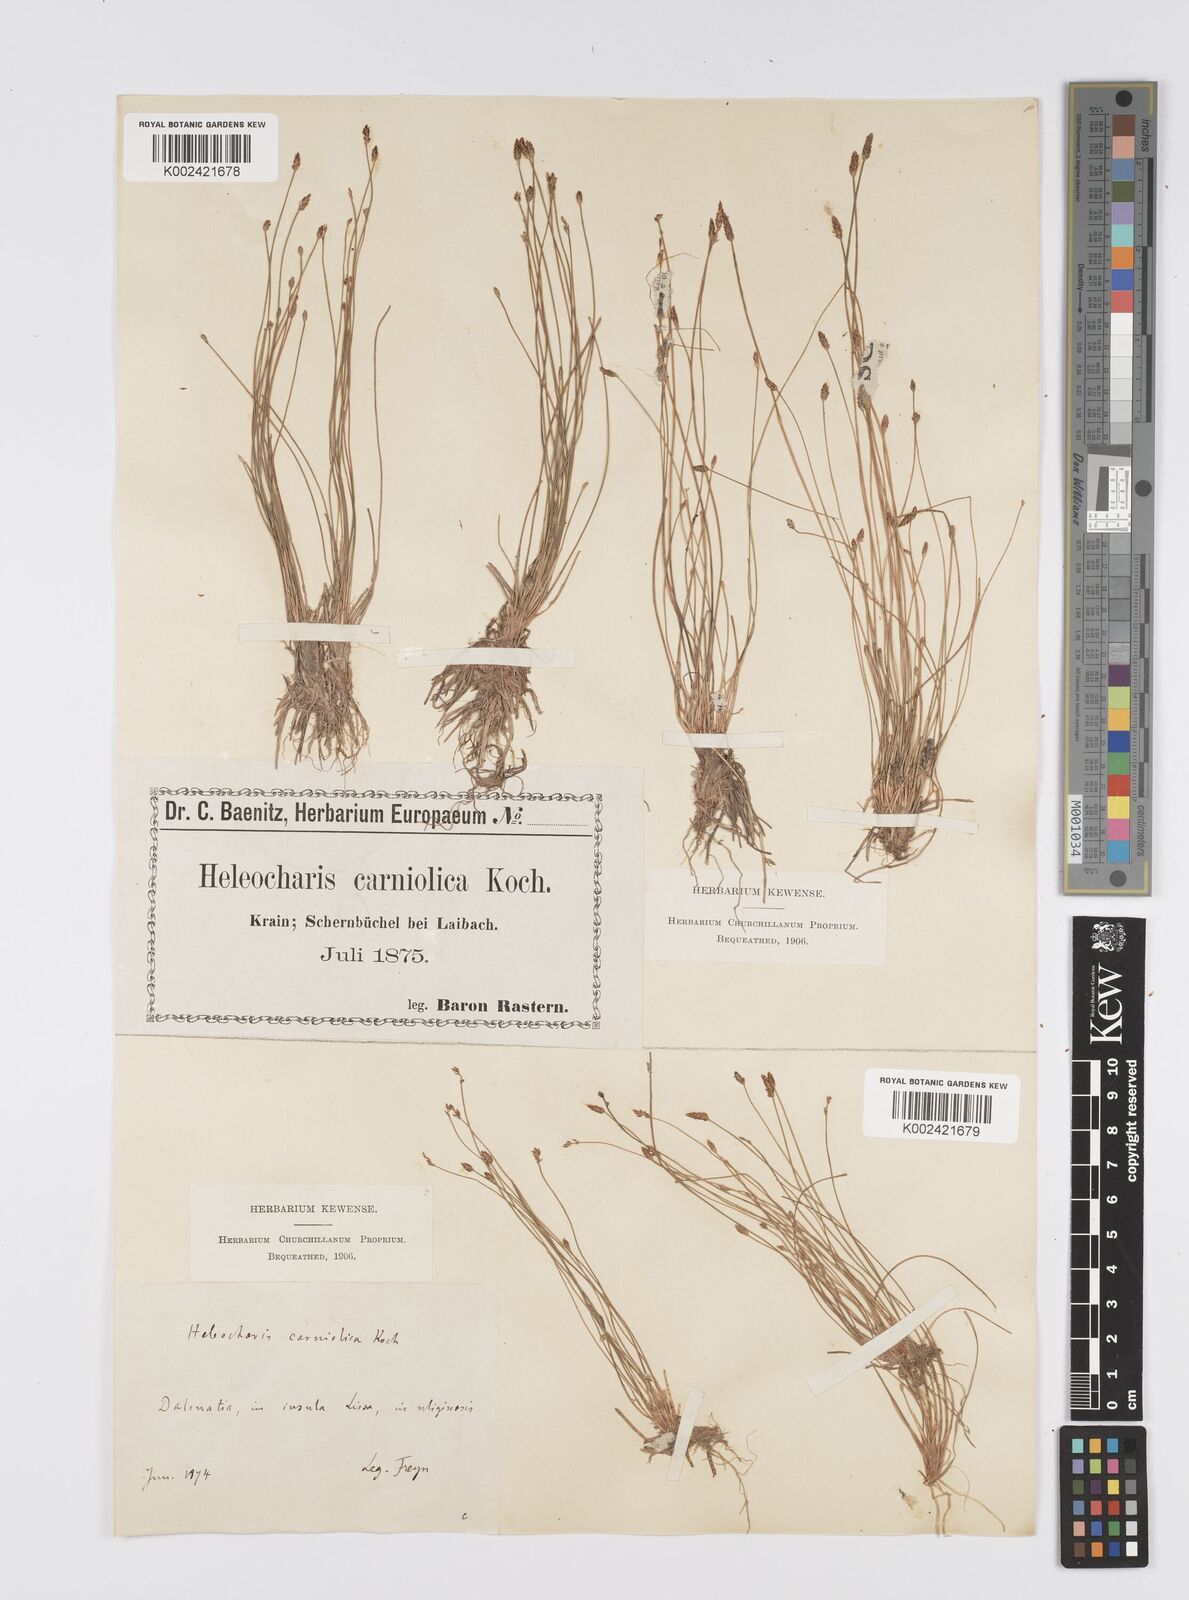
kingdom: Plantae
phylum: Tracheophyta
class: Liliopsida
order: Poales
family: Cyperaceae
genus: Eleocharis
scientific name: Eleocharis carniolica
